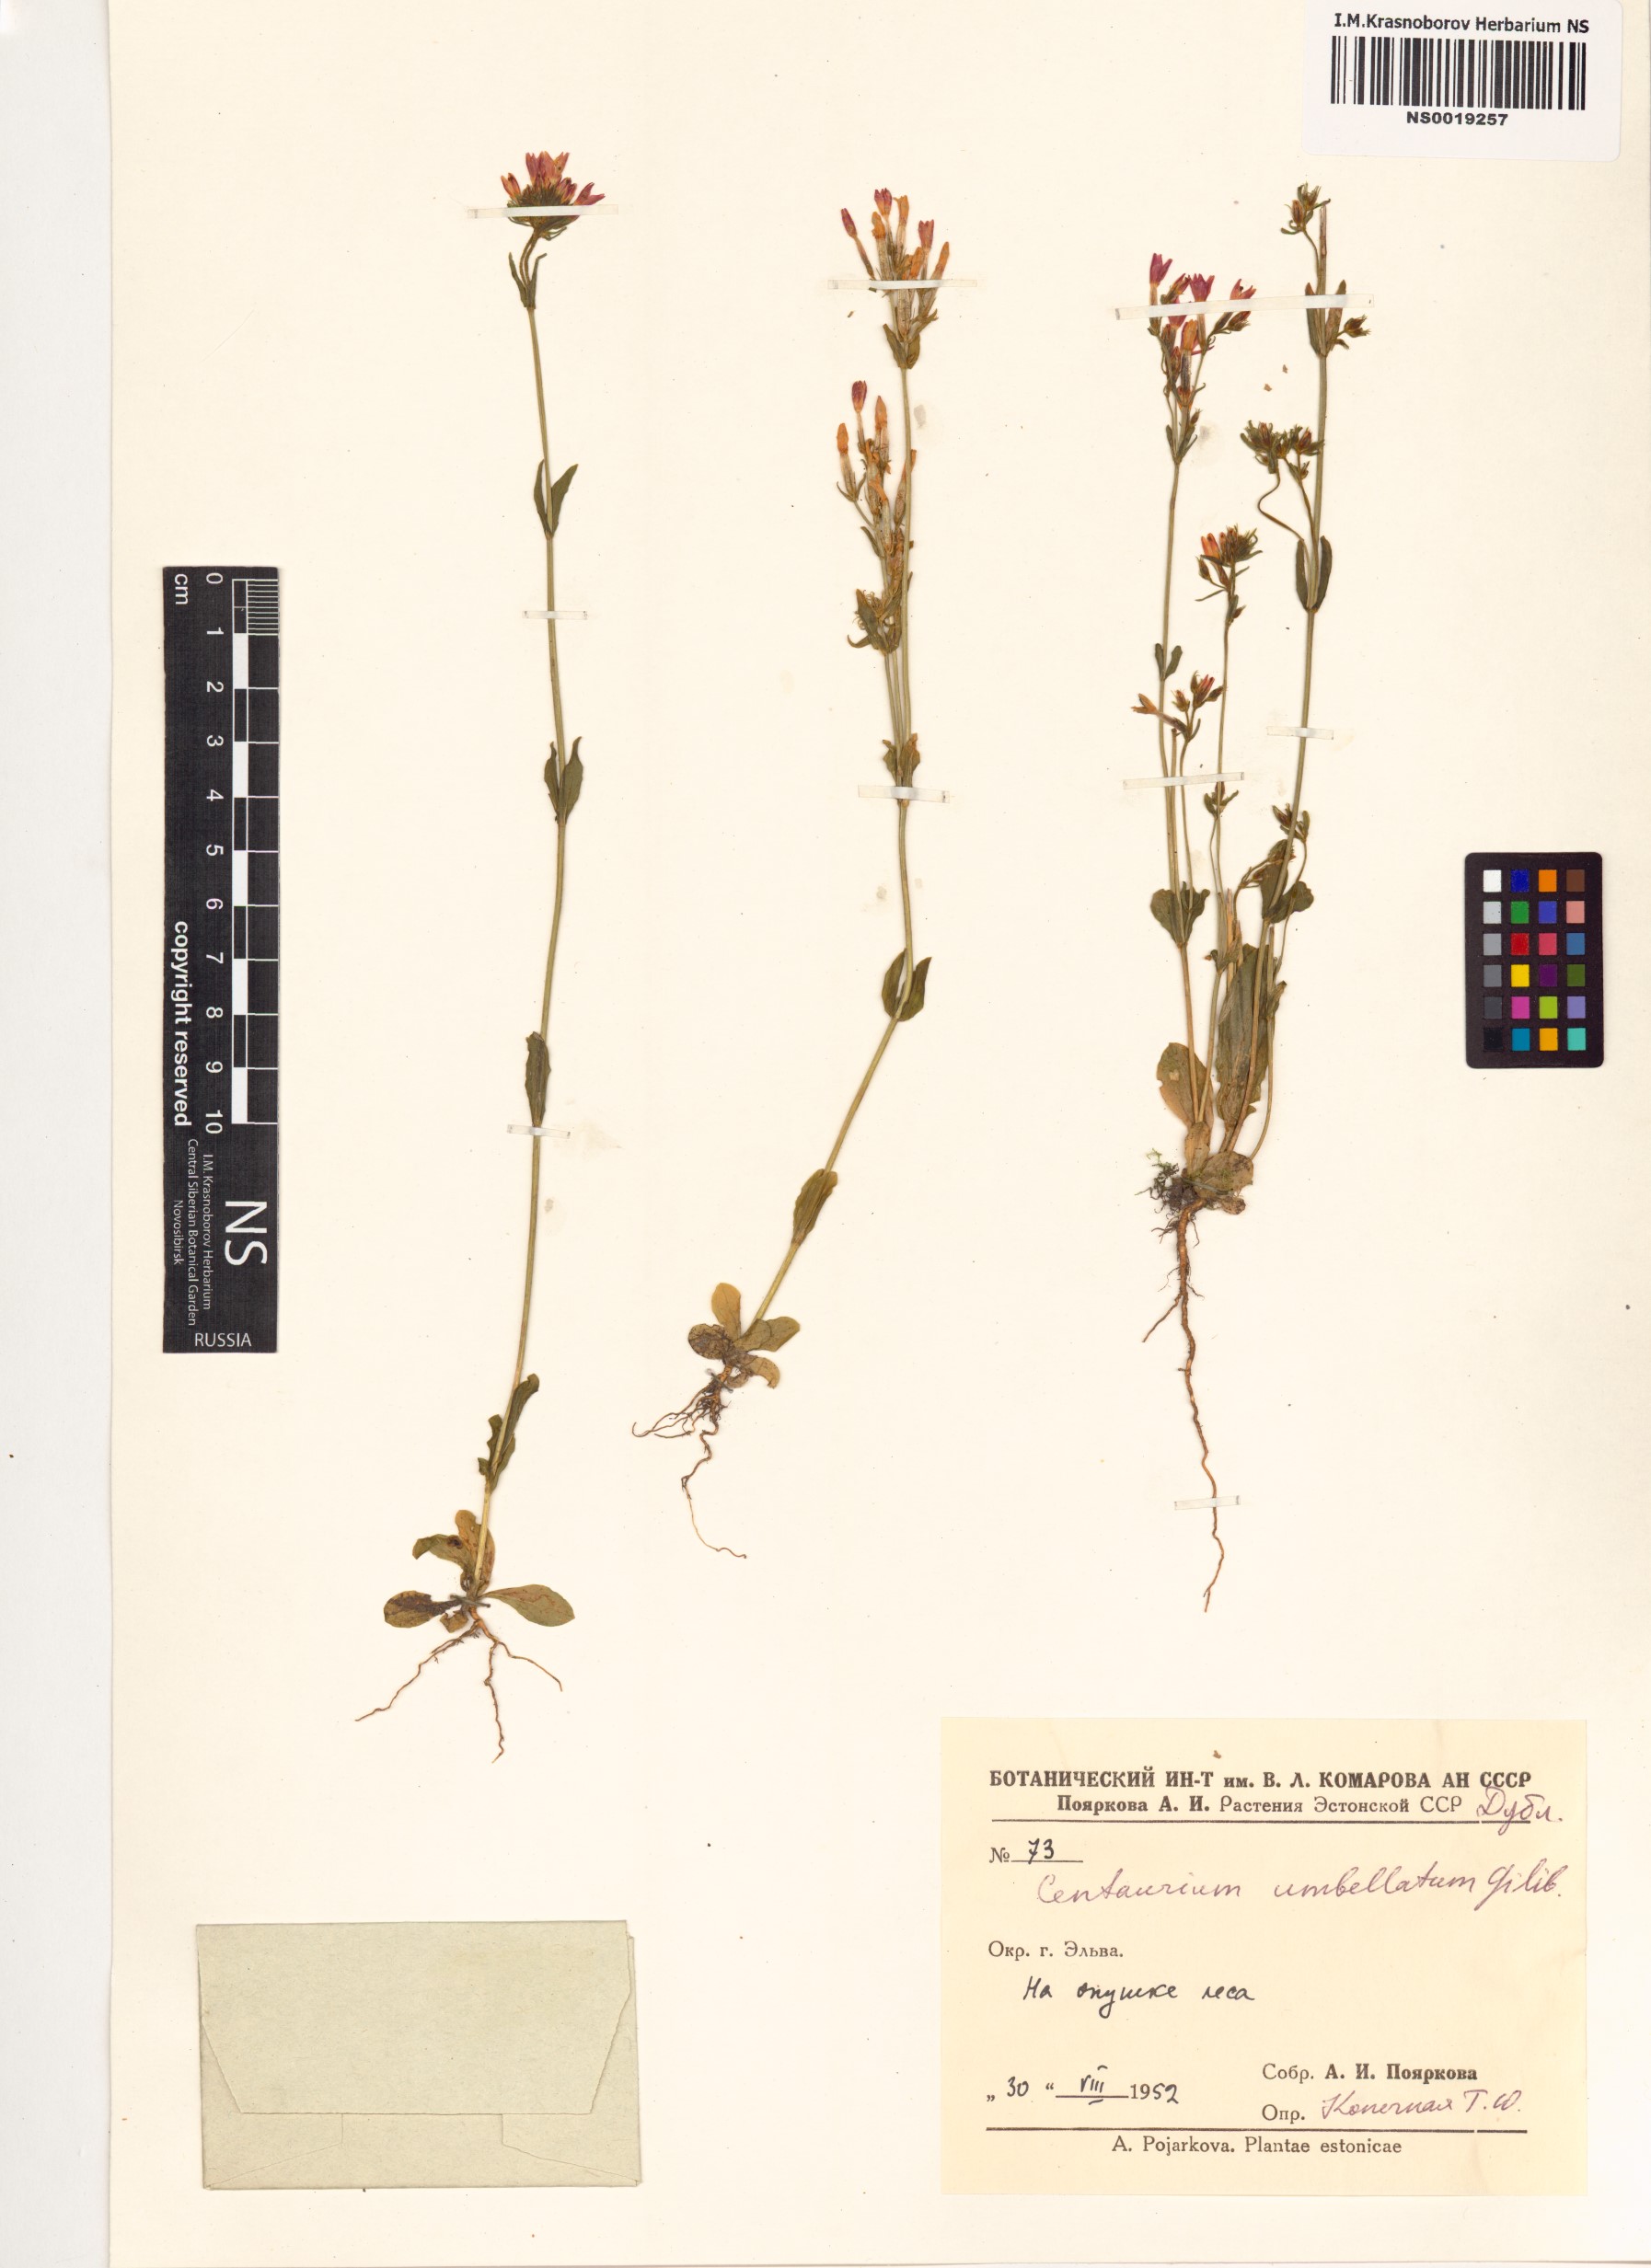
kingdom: Plantae
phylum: Tracheophyta
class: Magnoliopsida
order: Gentianales
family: Gentianaceae
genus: Centaurium
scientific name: Centaurium erythraea
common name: Common centaury
